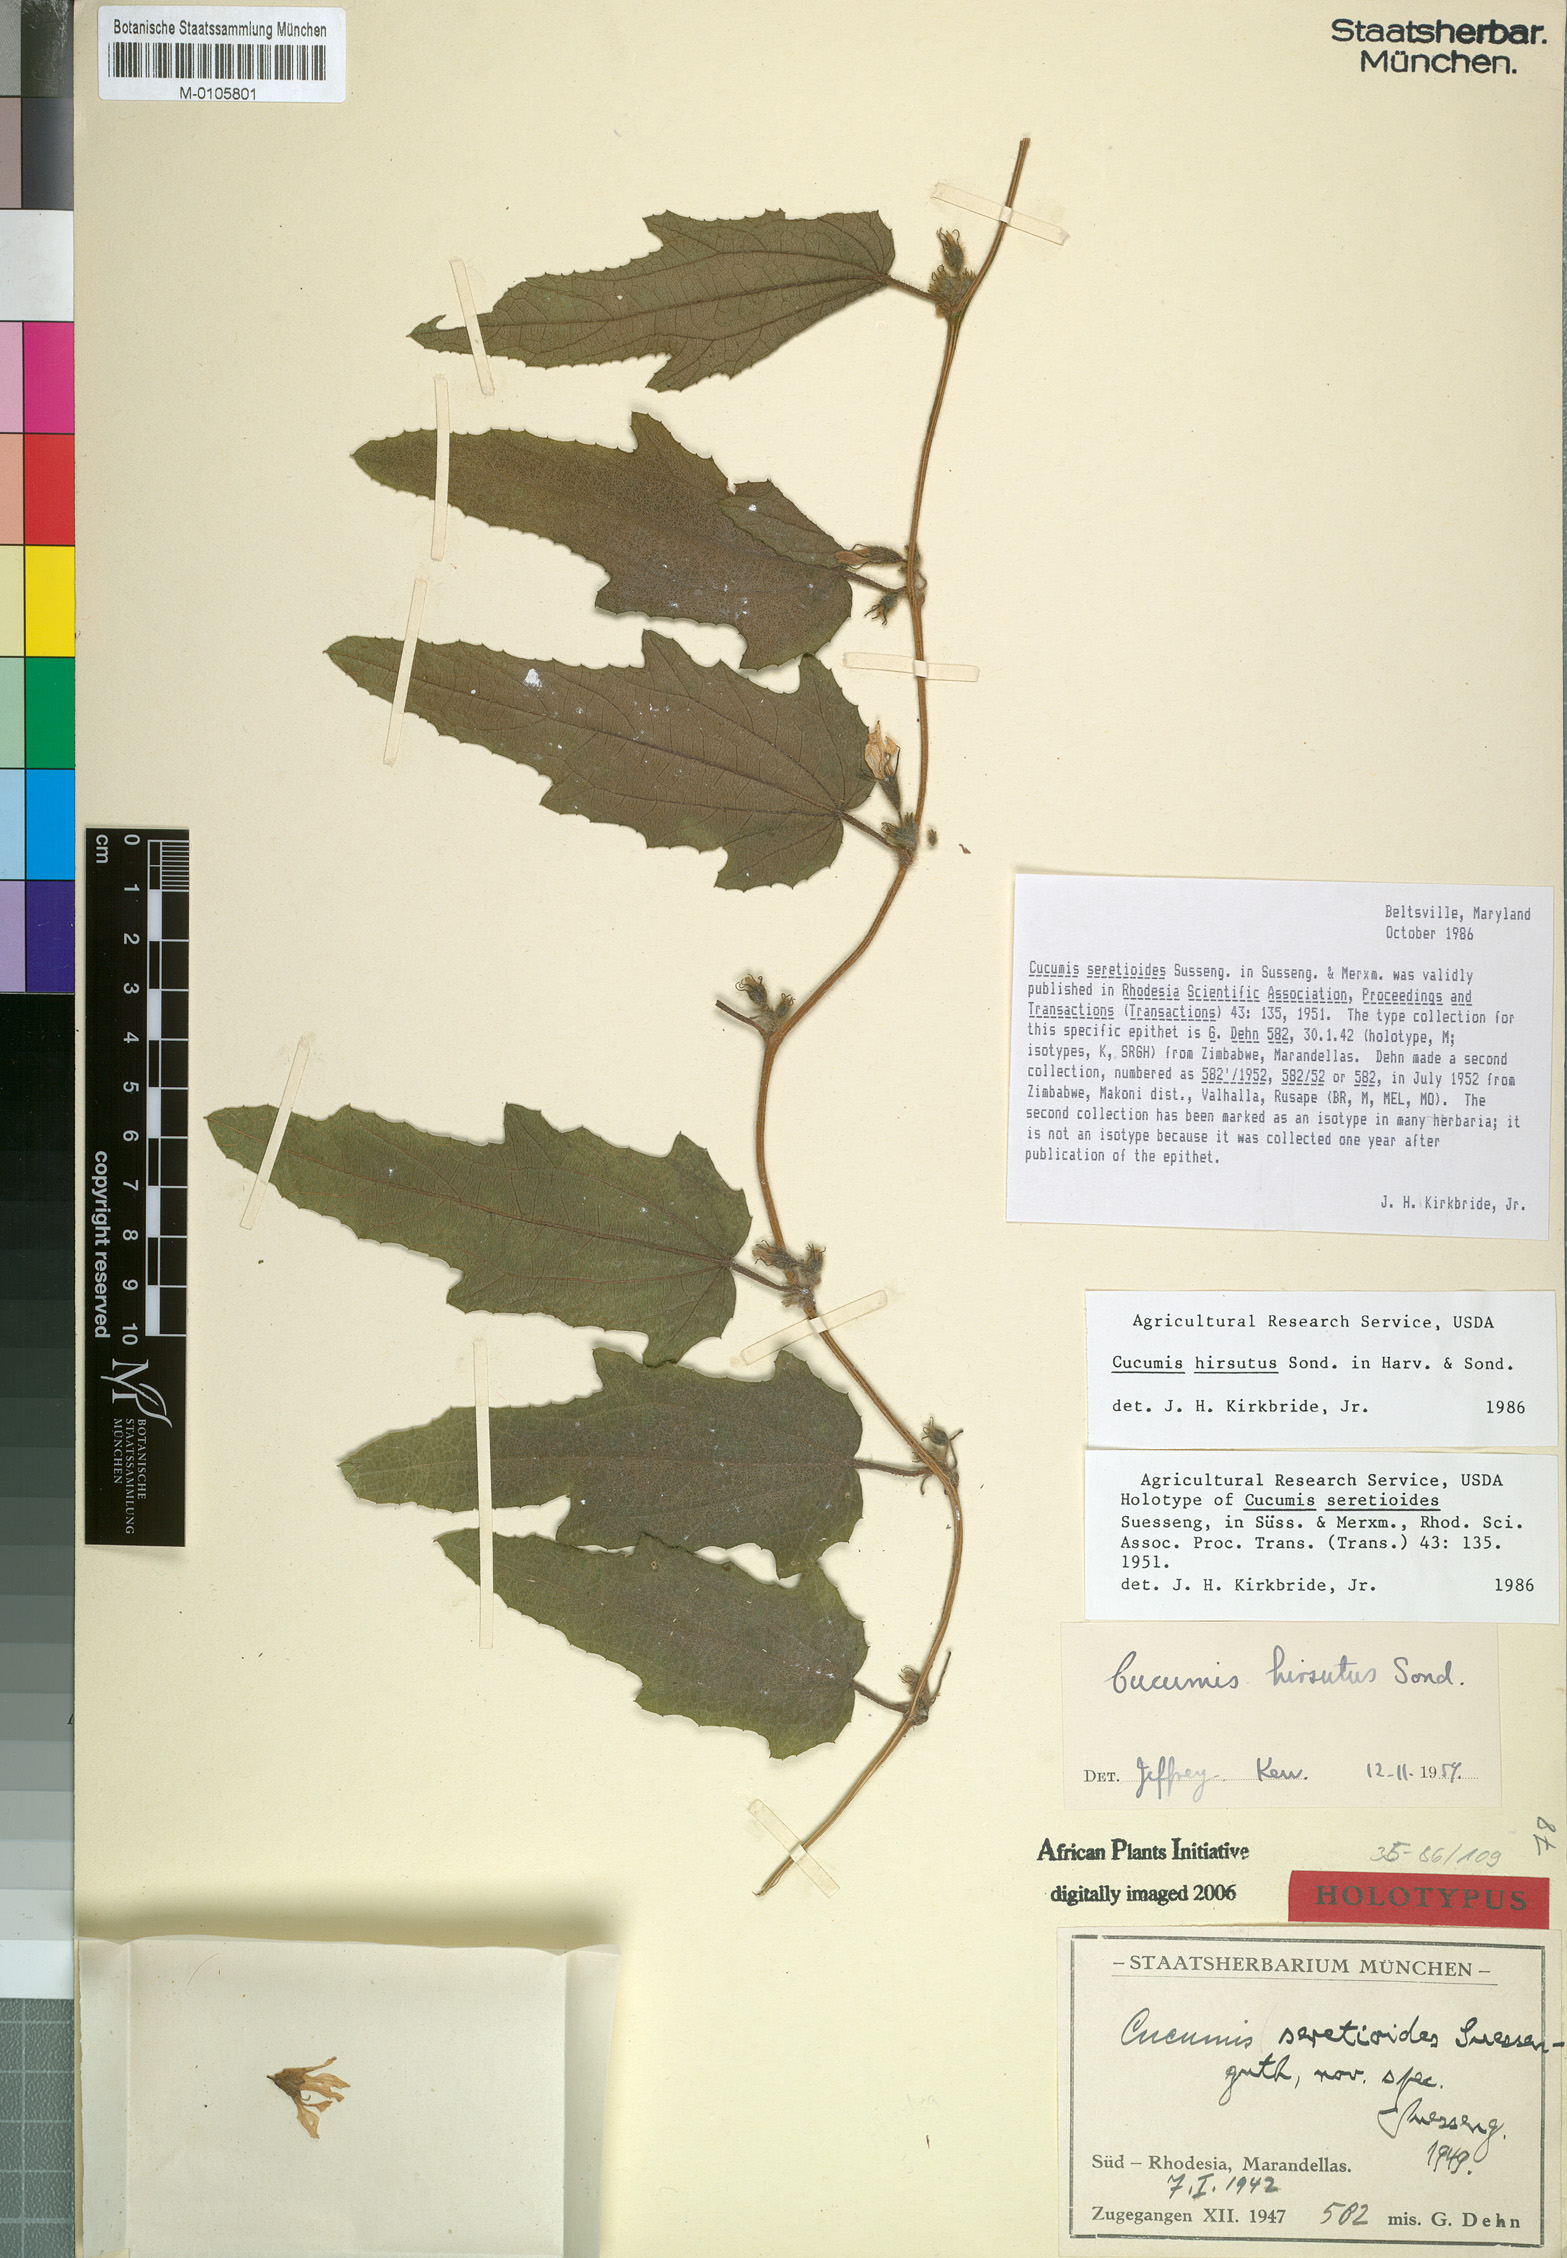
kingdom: Plantae
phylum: Tracheophyta
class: Magnoliopsida
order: Cucurbitales
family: Cucurbitaceae
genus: Cucumis
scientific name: Cucumis hirsutus
